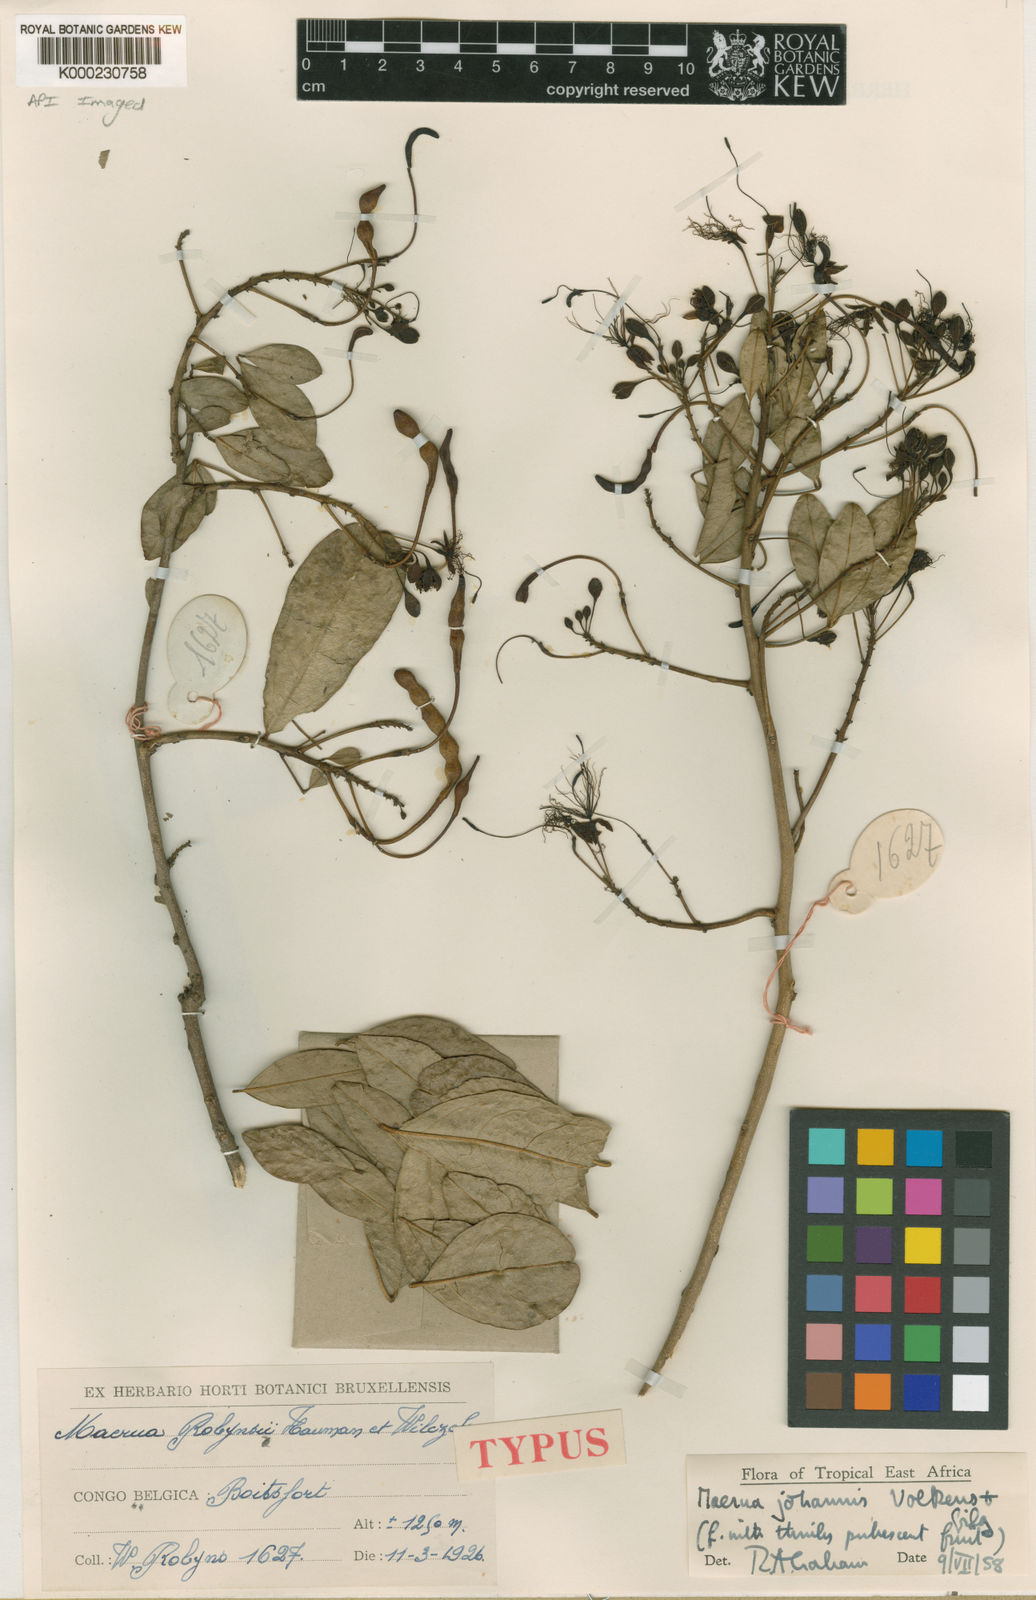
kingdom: Plantae
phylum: Tracheophyta
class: Magnoliopsida
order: Brassicales
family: Capparaceae
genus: Maerua
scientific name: Maerua
